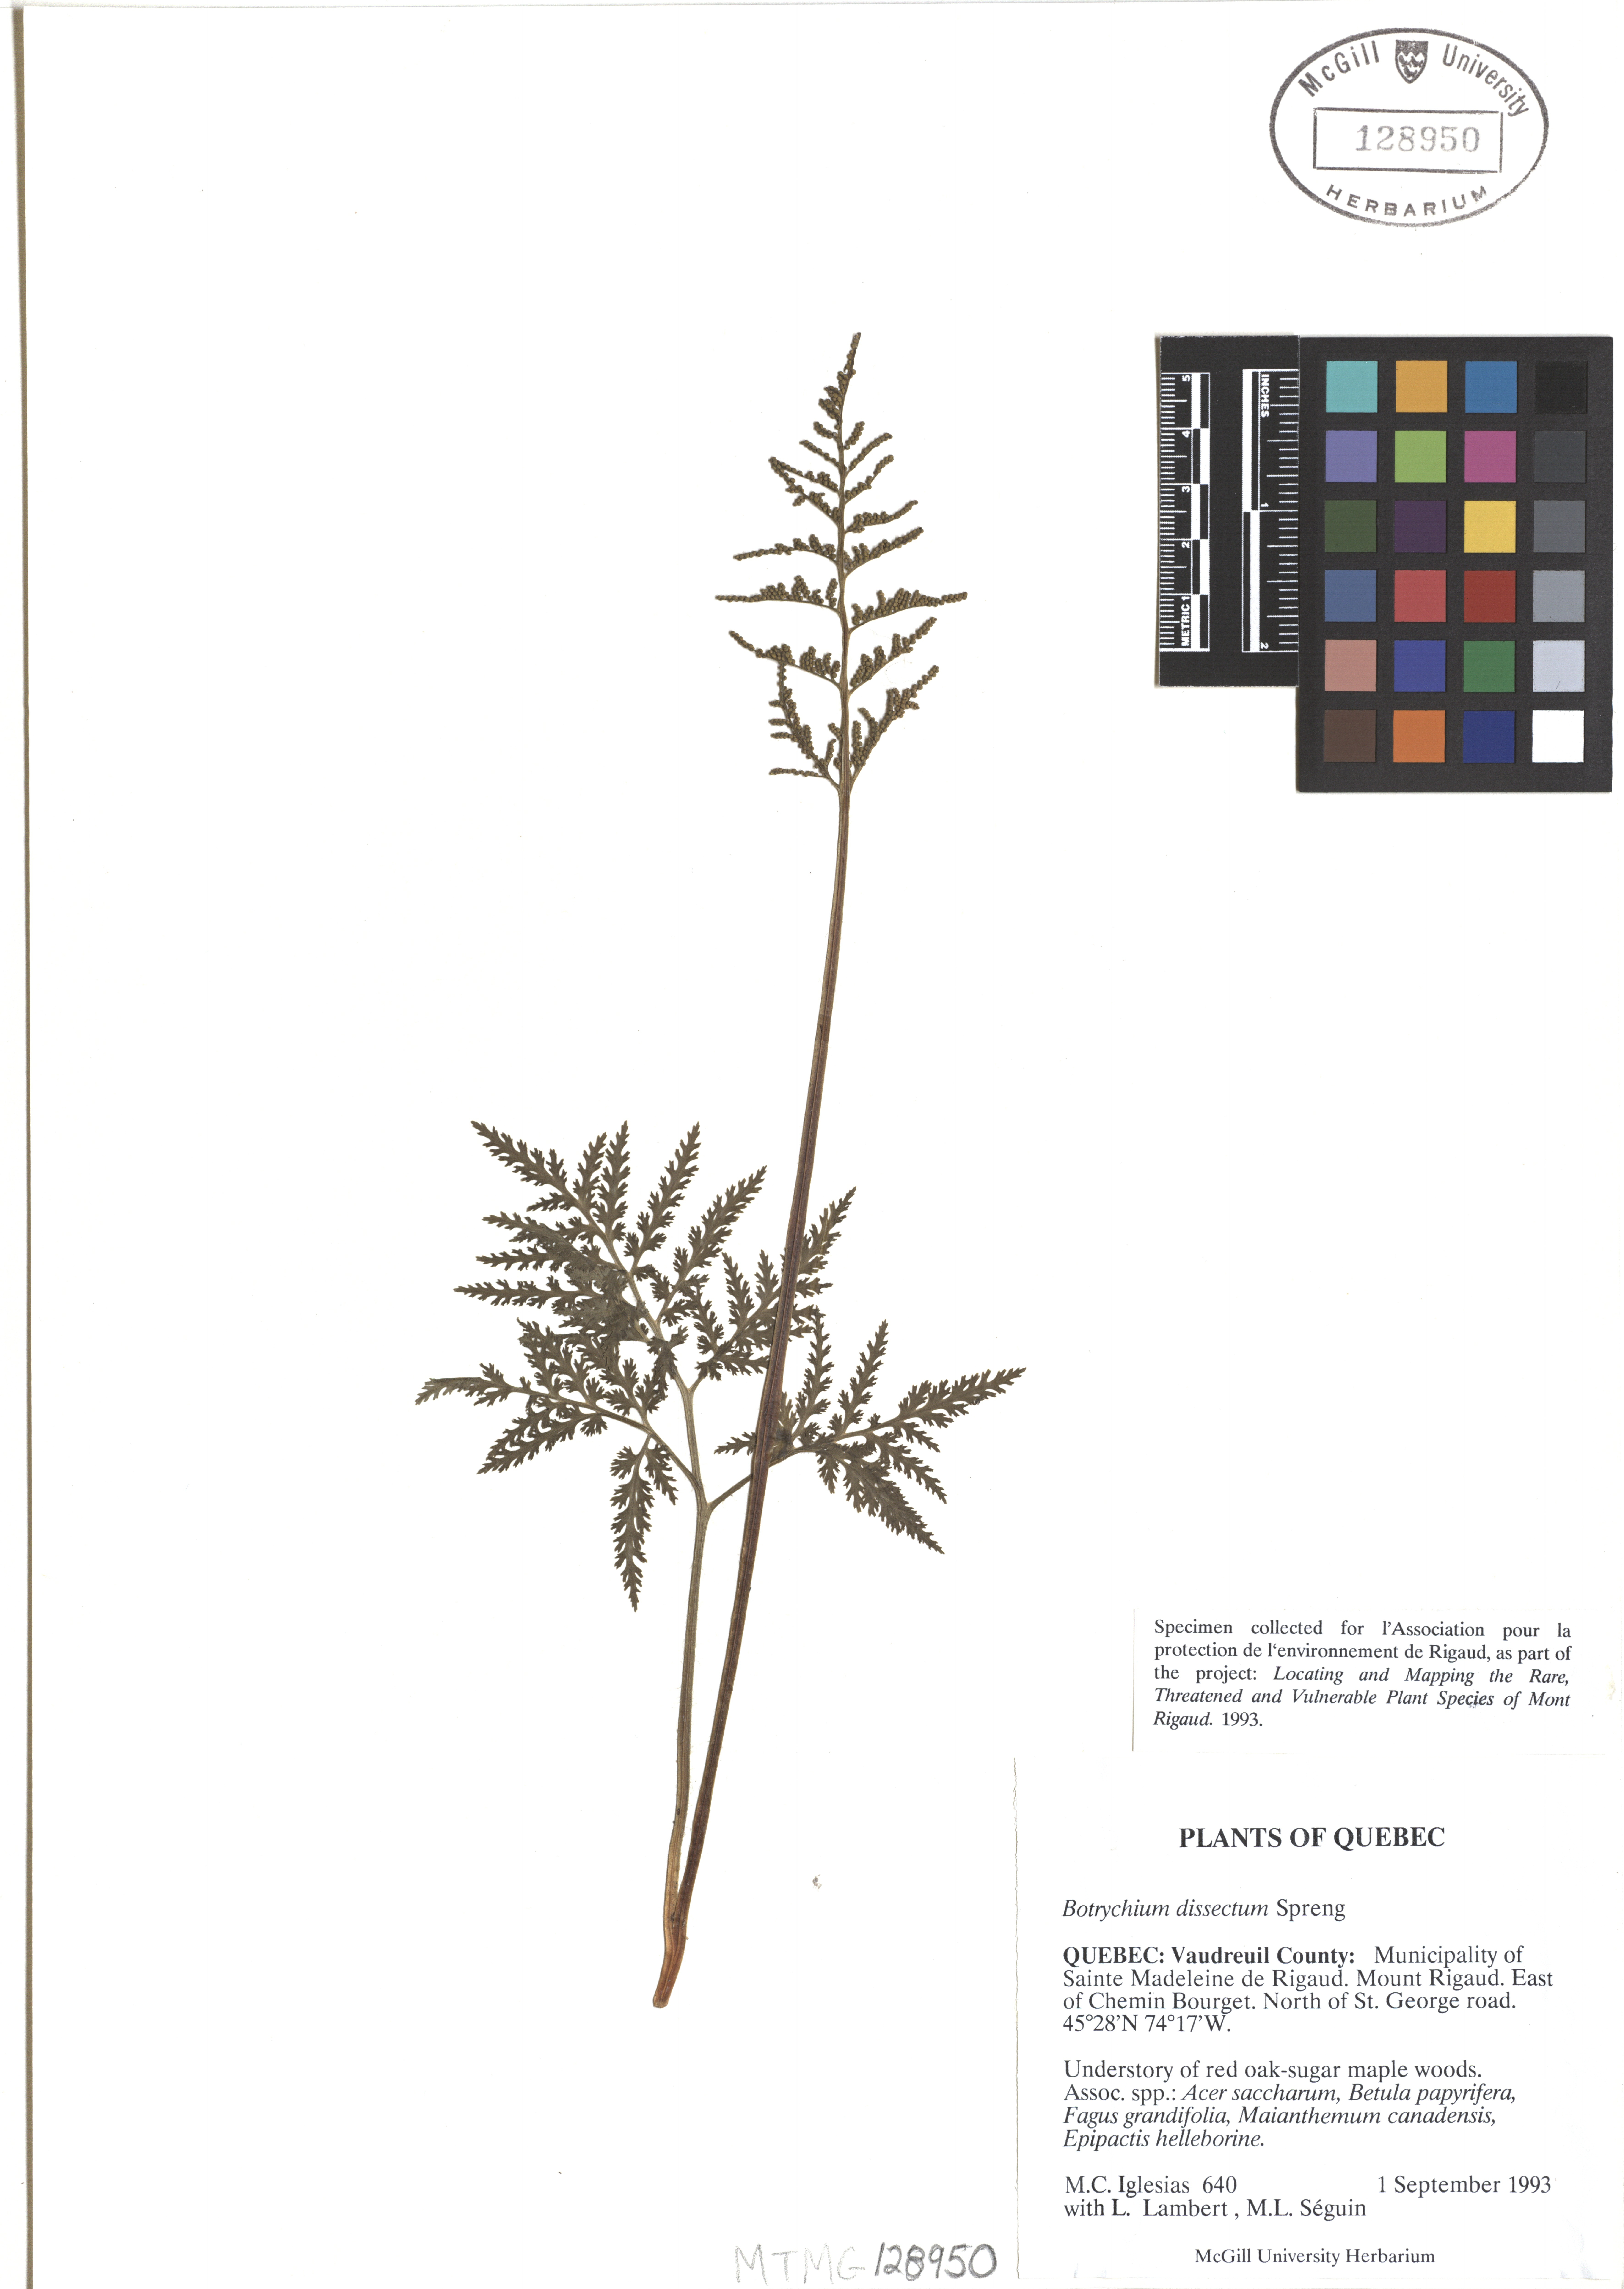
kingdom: Plantae
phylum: Tracheophyta
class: Polypodiopsida
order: Ophioglossales
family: Ophioglossaceae
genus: Sceptridium
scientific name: Sceptridium dissectum
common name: Cut-leaved grapefern
